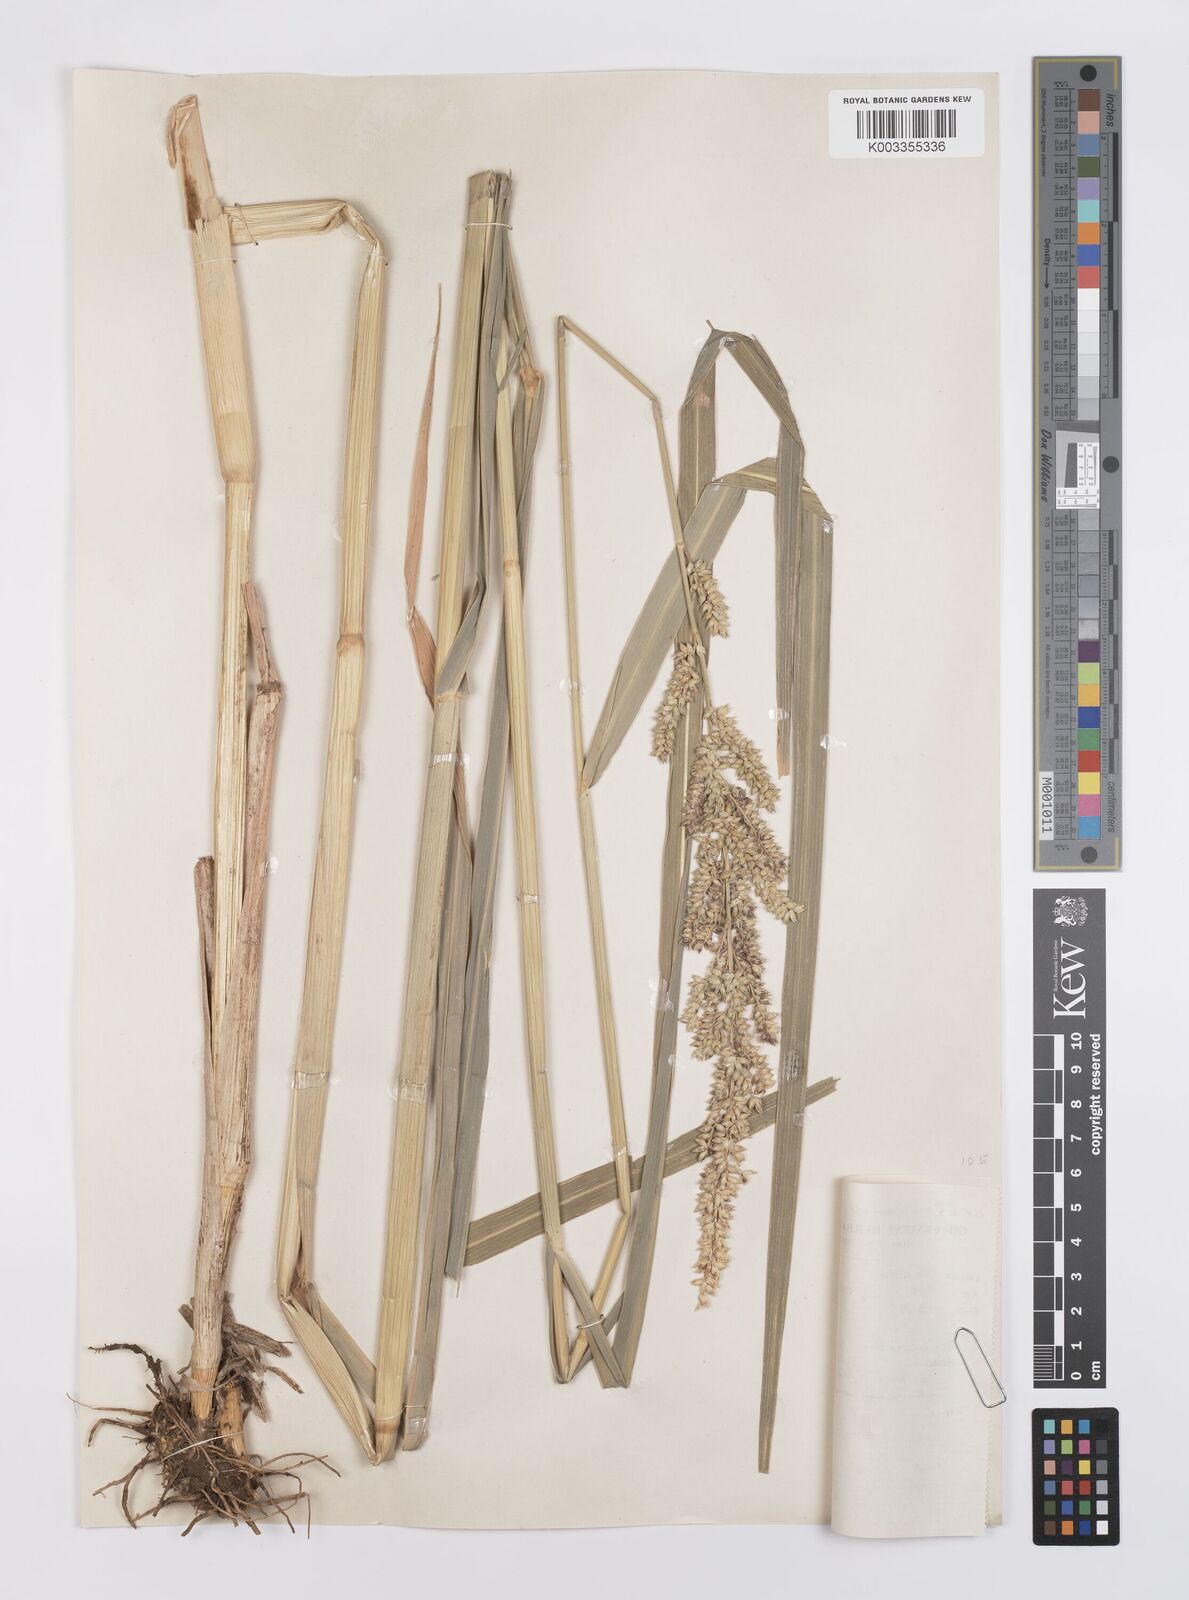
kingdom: Plantae
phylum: Tracheophyta
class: Liliopsida
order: Poales
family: Poaceae
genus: Echinochloa
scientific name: Echinochloa pyramidalis
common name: Antelope grass
